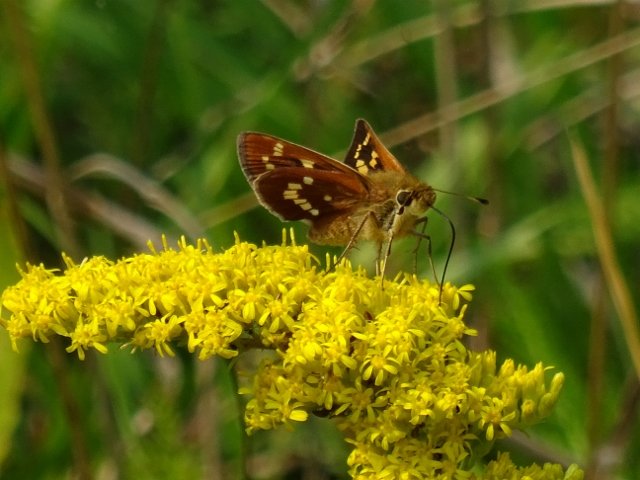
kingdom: Animalia
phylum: Arthropoda
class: Insecta
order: Lepidoptera
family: Hesperiidae
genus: Hesperia
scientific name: Hesperia leonardus
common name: Leonard's Skipper
